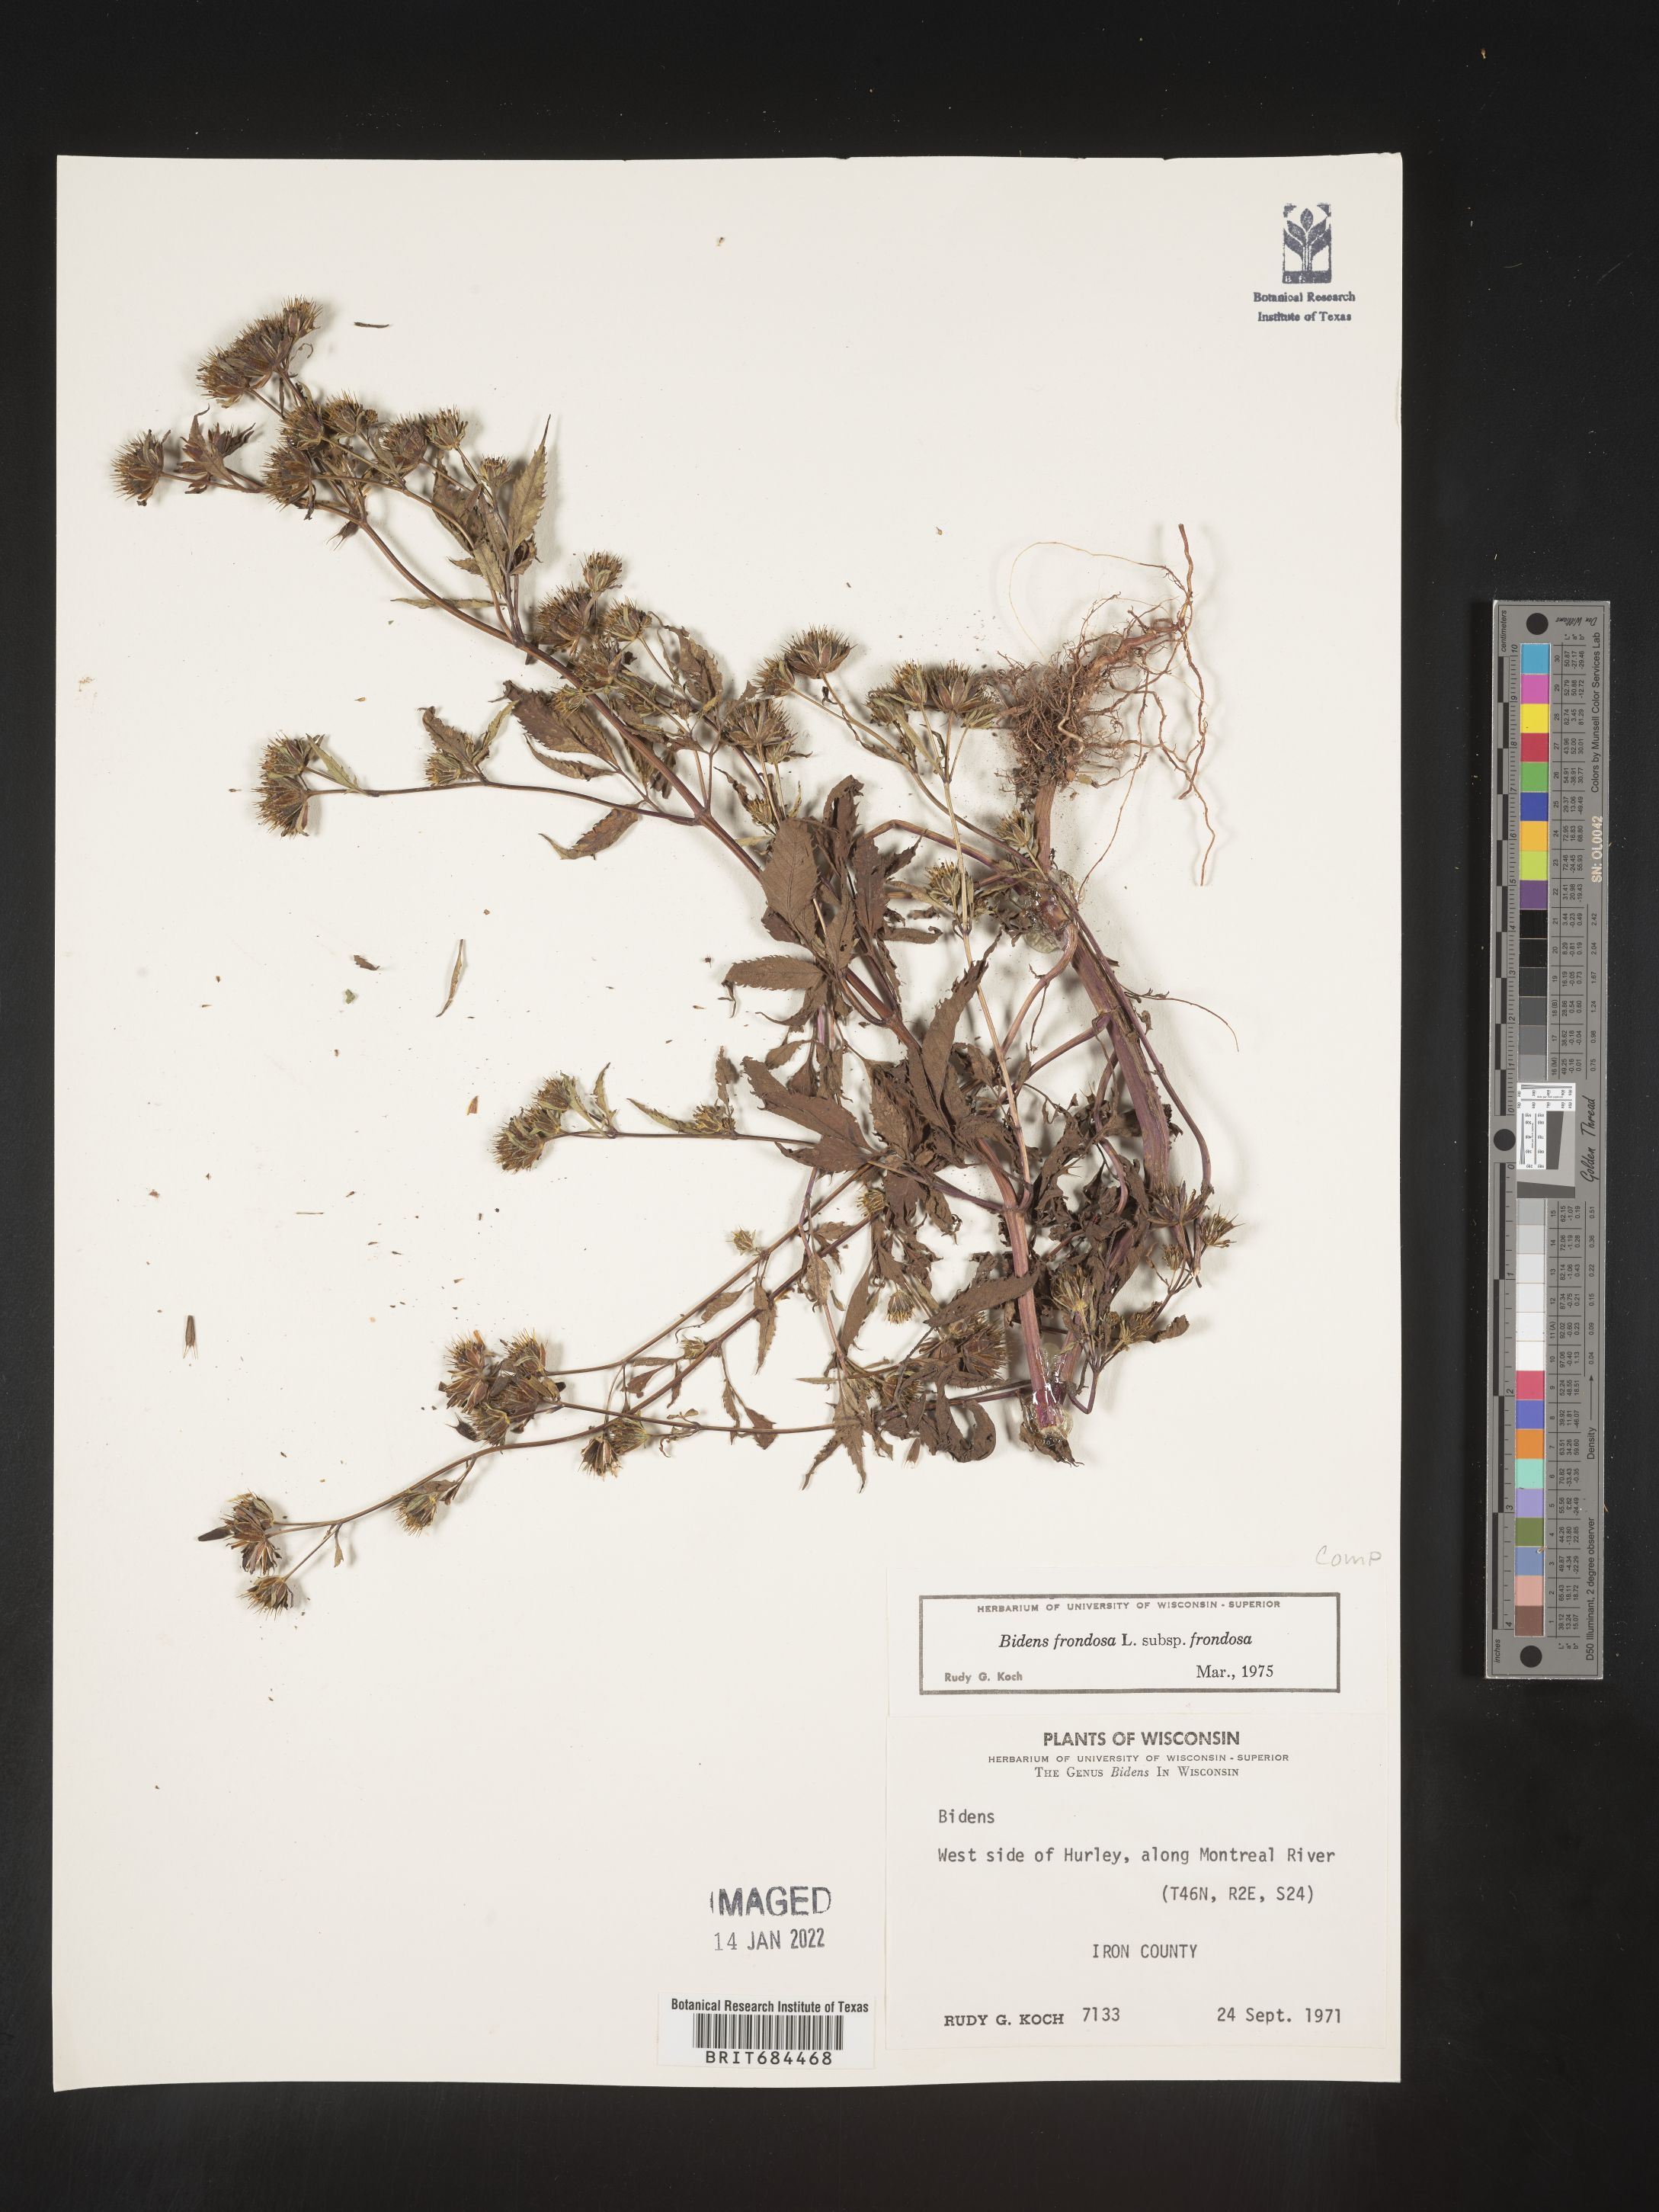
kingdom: Plantae
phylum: Tracheophyta
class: Magnoliopsida
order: Asterales
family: Asteraceae
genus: Bidens
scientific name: Bidens frondosa
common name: Beggarticks
